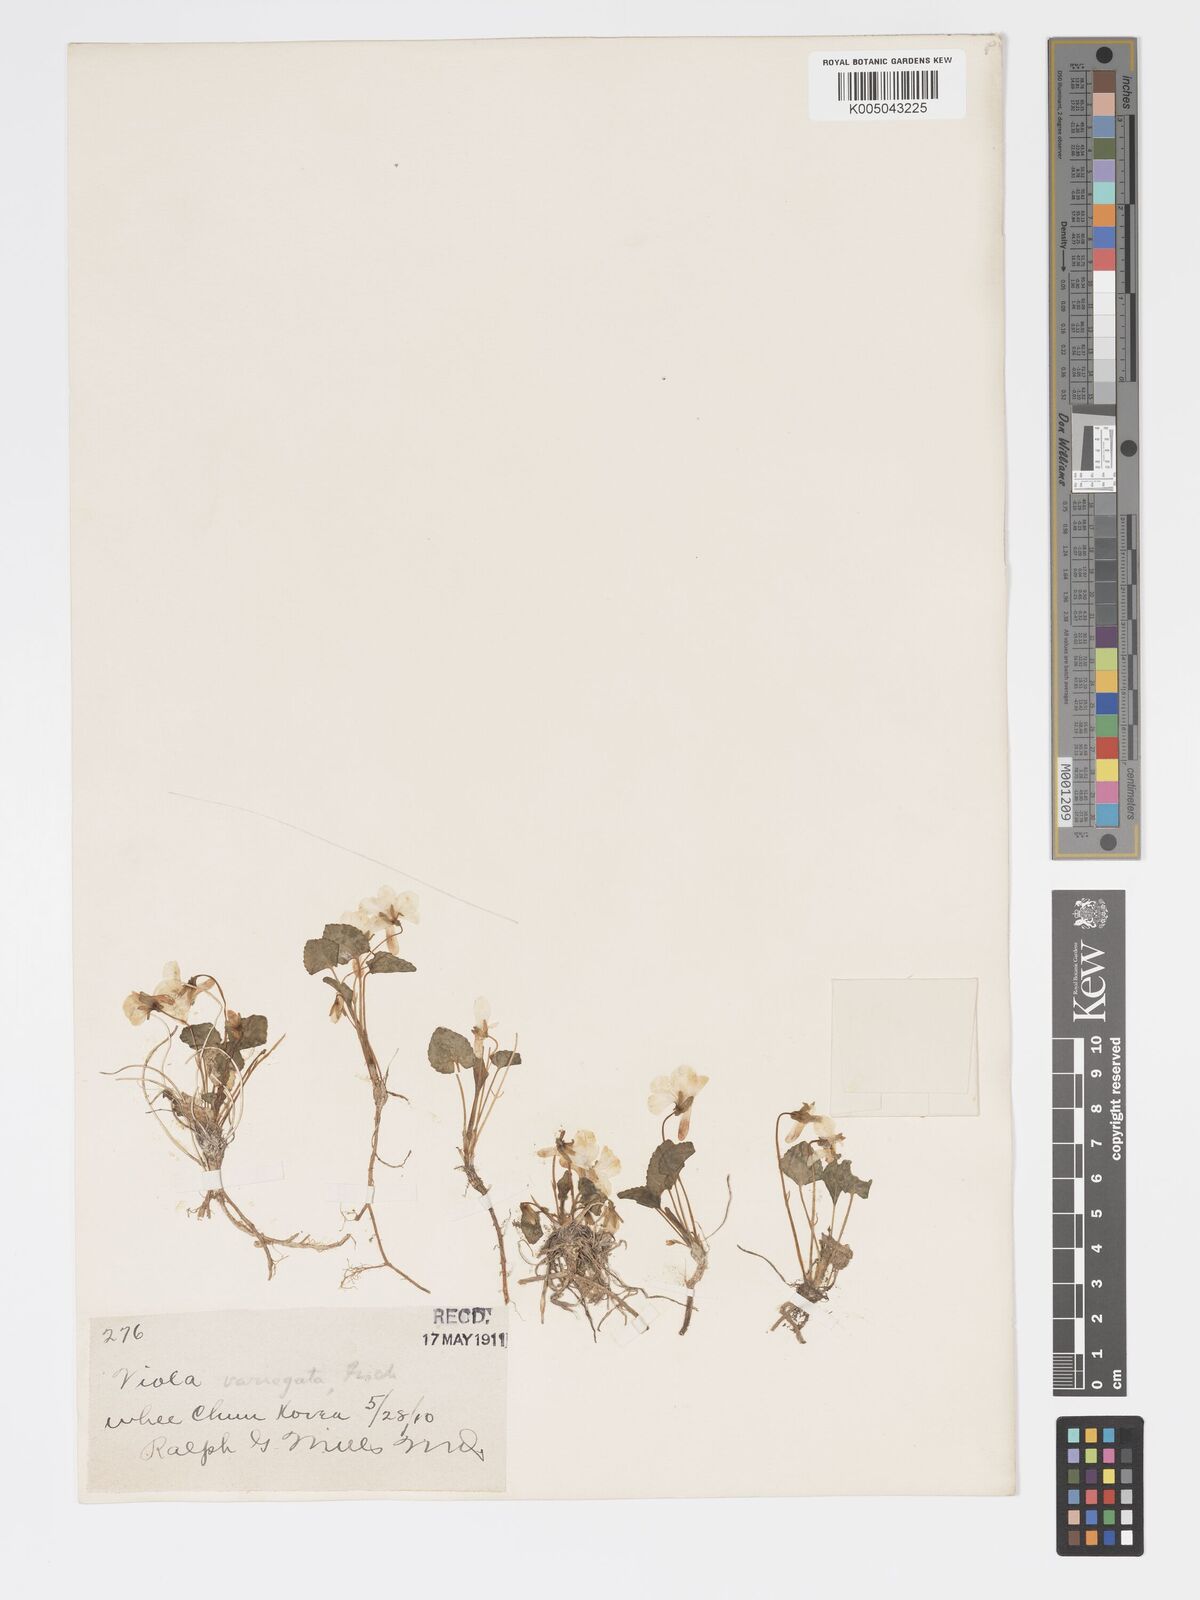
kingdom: Plantae
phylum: Tracheophyta
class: Magnoliopsida
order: Malpighiales
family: Violaceae
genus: Viola
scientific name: Viola vaginata
